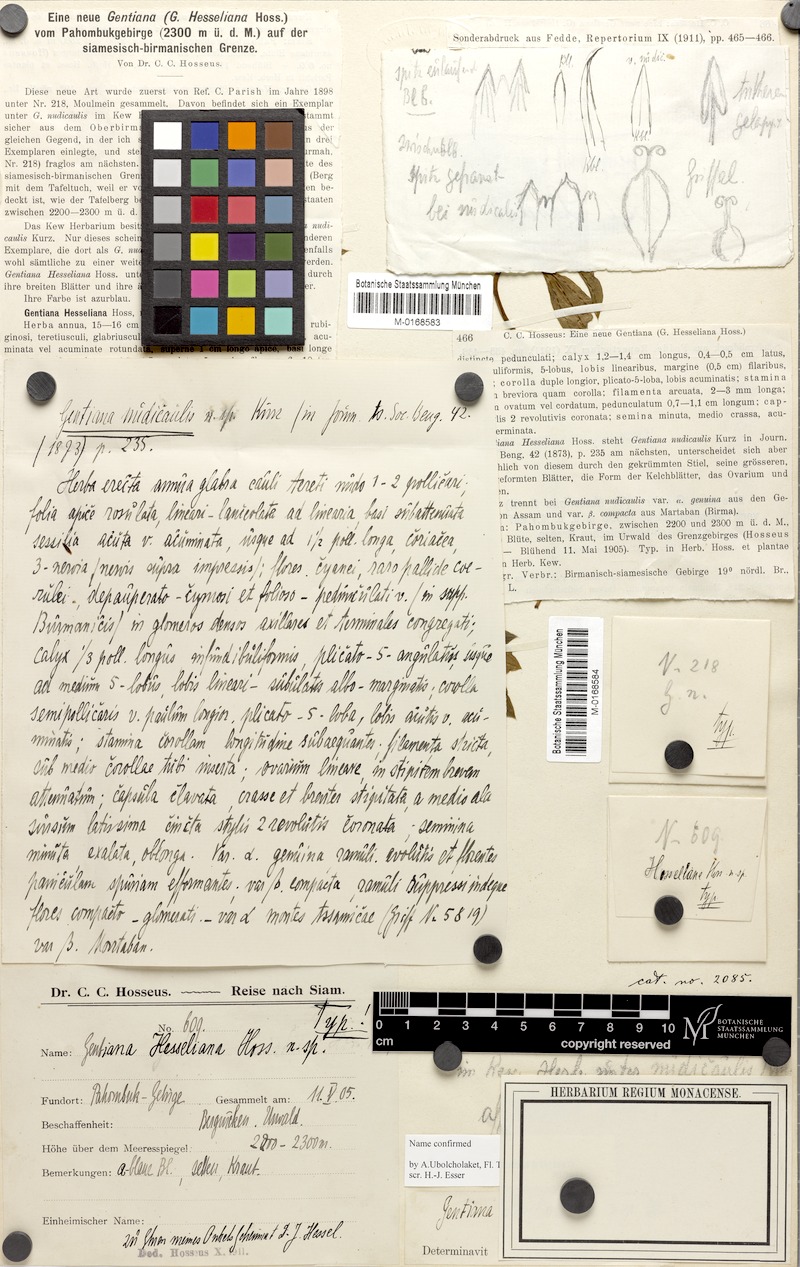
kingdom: Plantae
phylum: Tracheophyta
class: Magnoliopsida
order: Gentianales
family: Gentianaceae
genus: Gentiana
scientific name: Gentiana hesseliana
